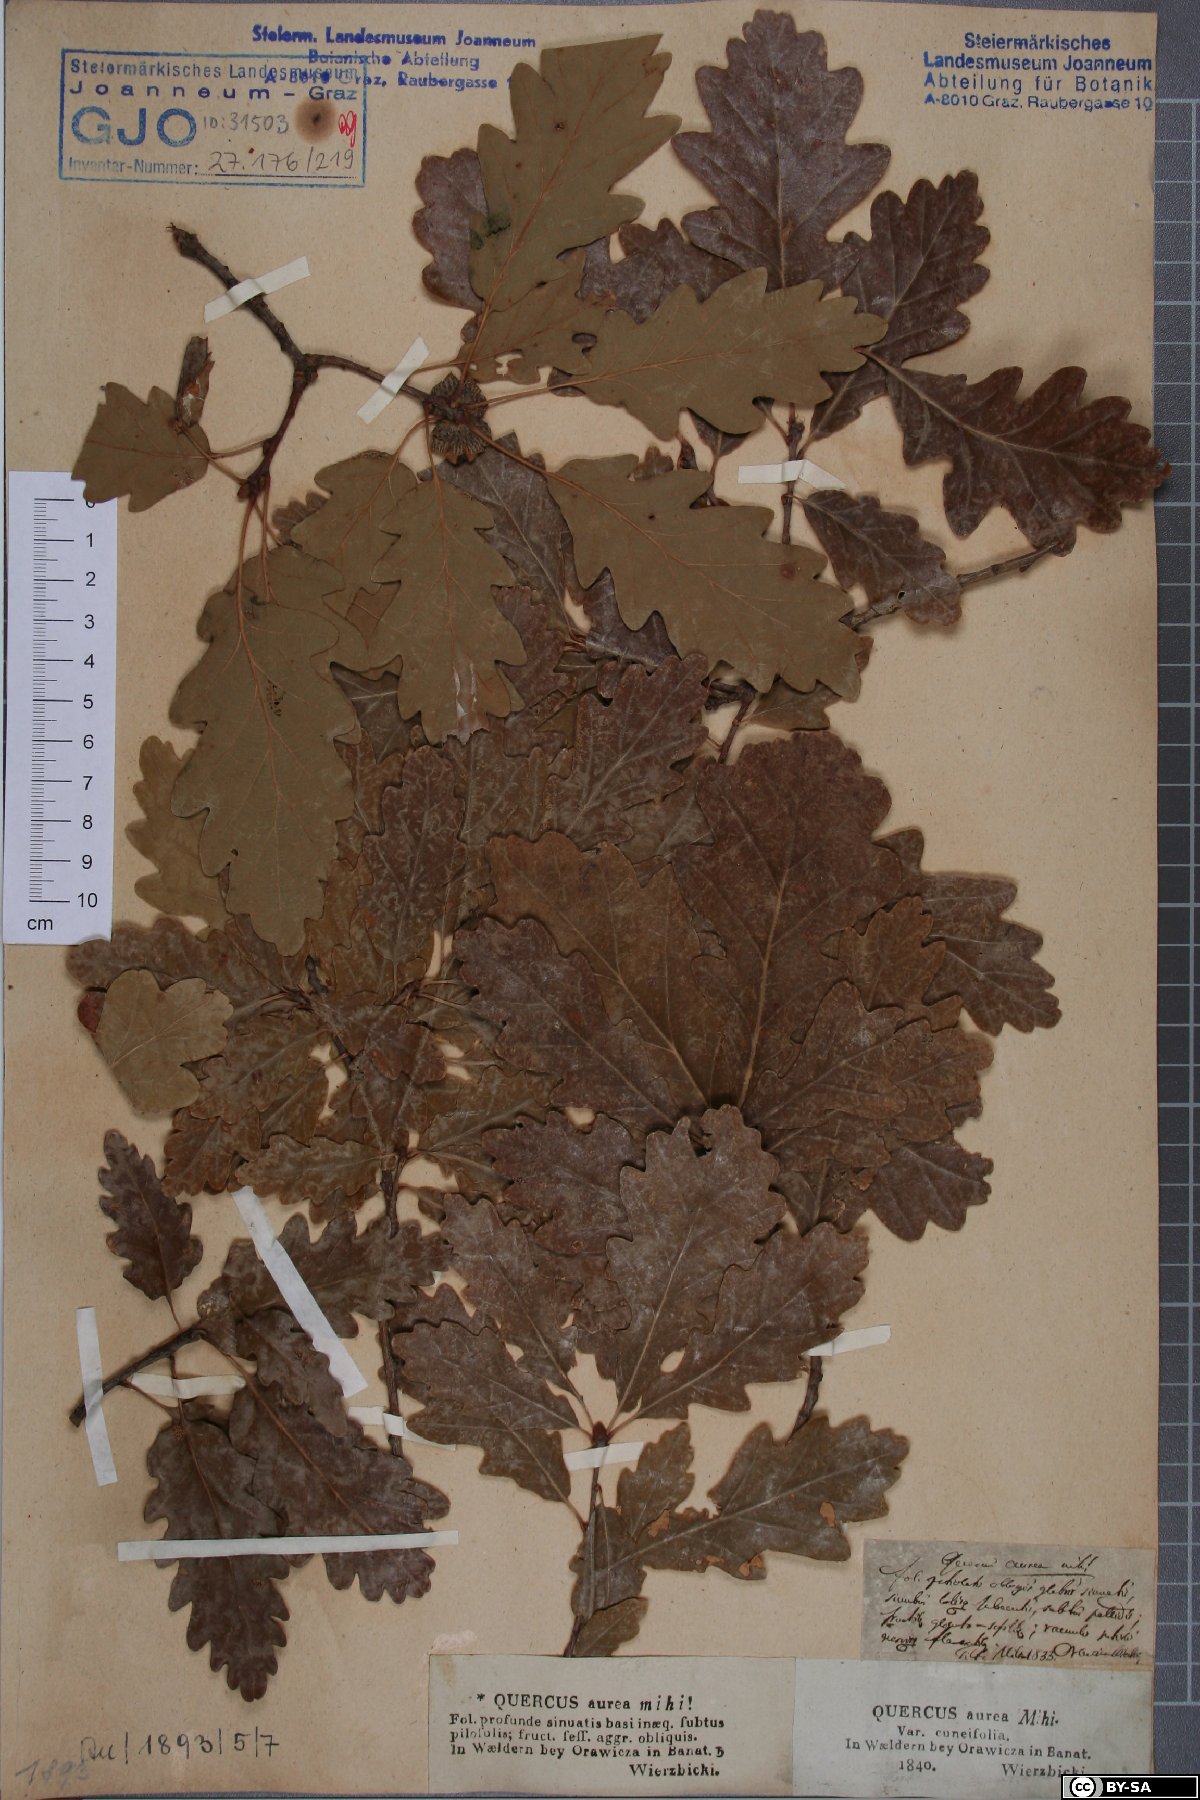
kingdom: Plantae
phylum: Tracheophyta
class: Magnoliopsida
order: Fagales
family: Fagaceae
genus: Quercus
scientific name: Quercus dalechampii
